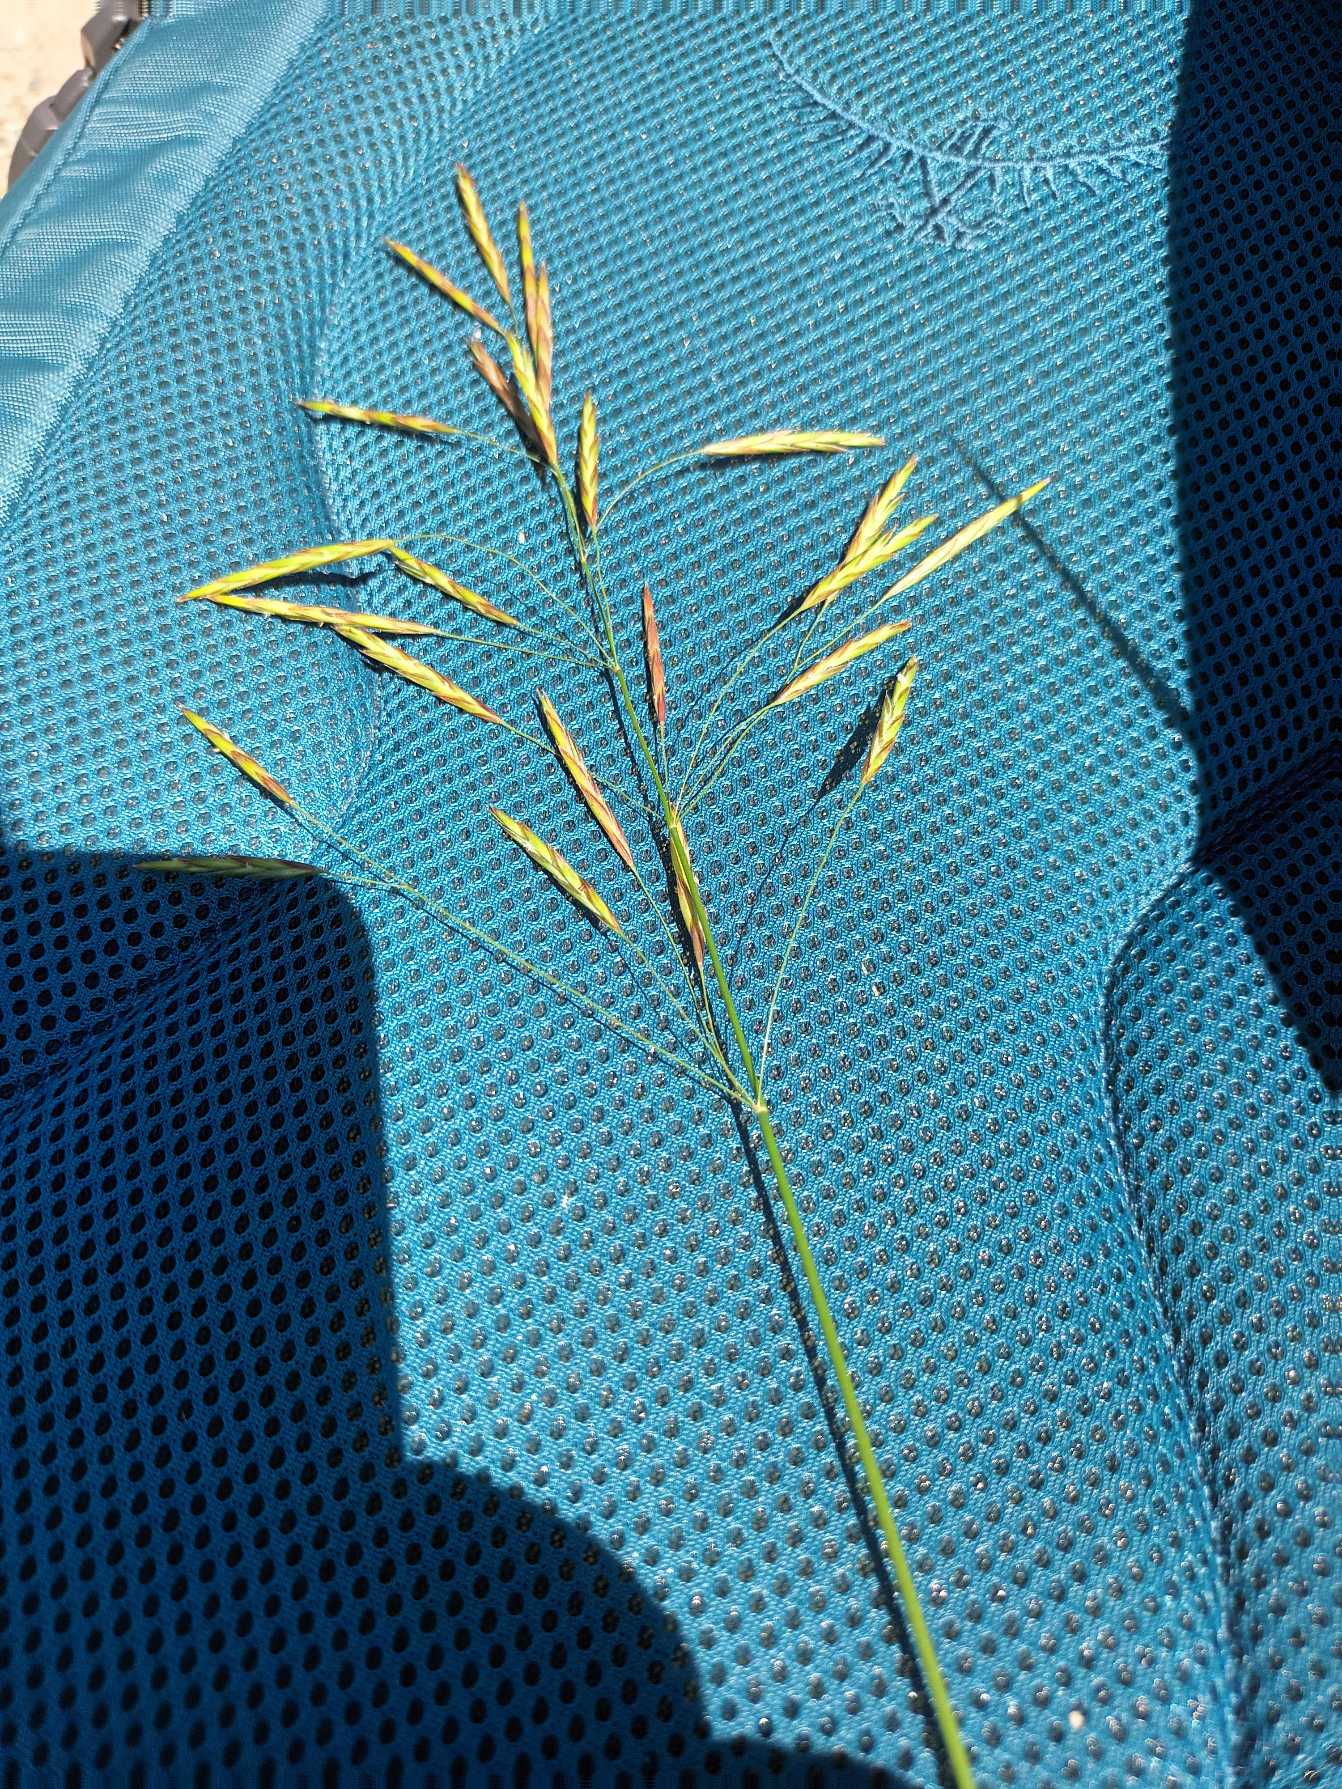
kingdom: Plantae
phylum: Tracheophyta
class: Liliopsida
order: Poales
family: Poaceae
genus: Bromus
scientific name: Bromus inermis
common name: Stakløs hejre
